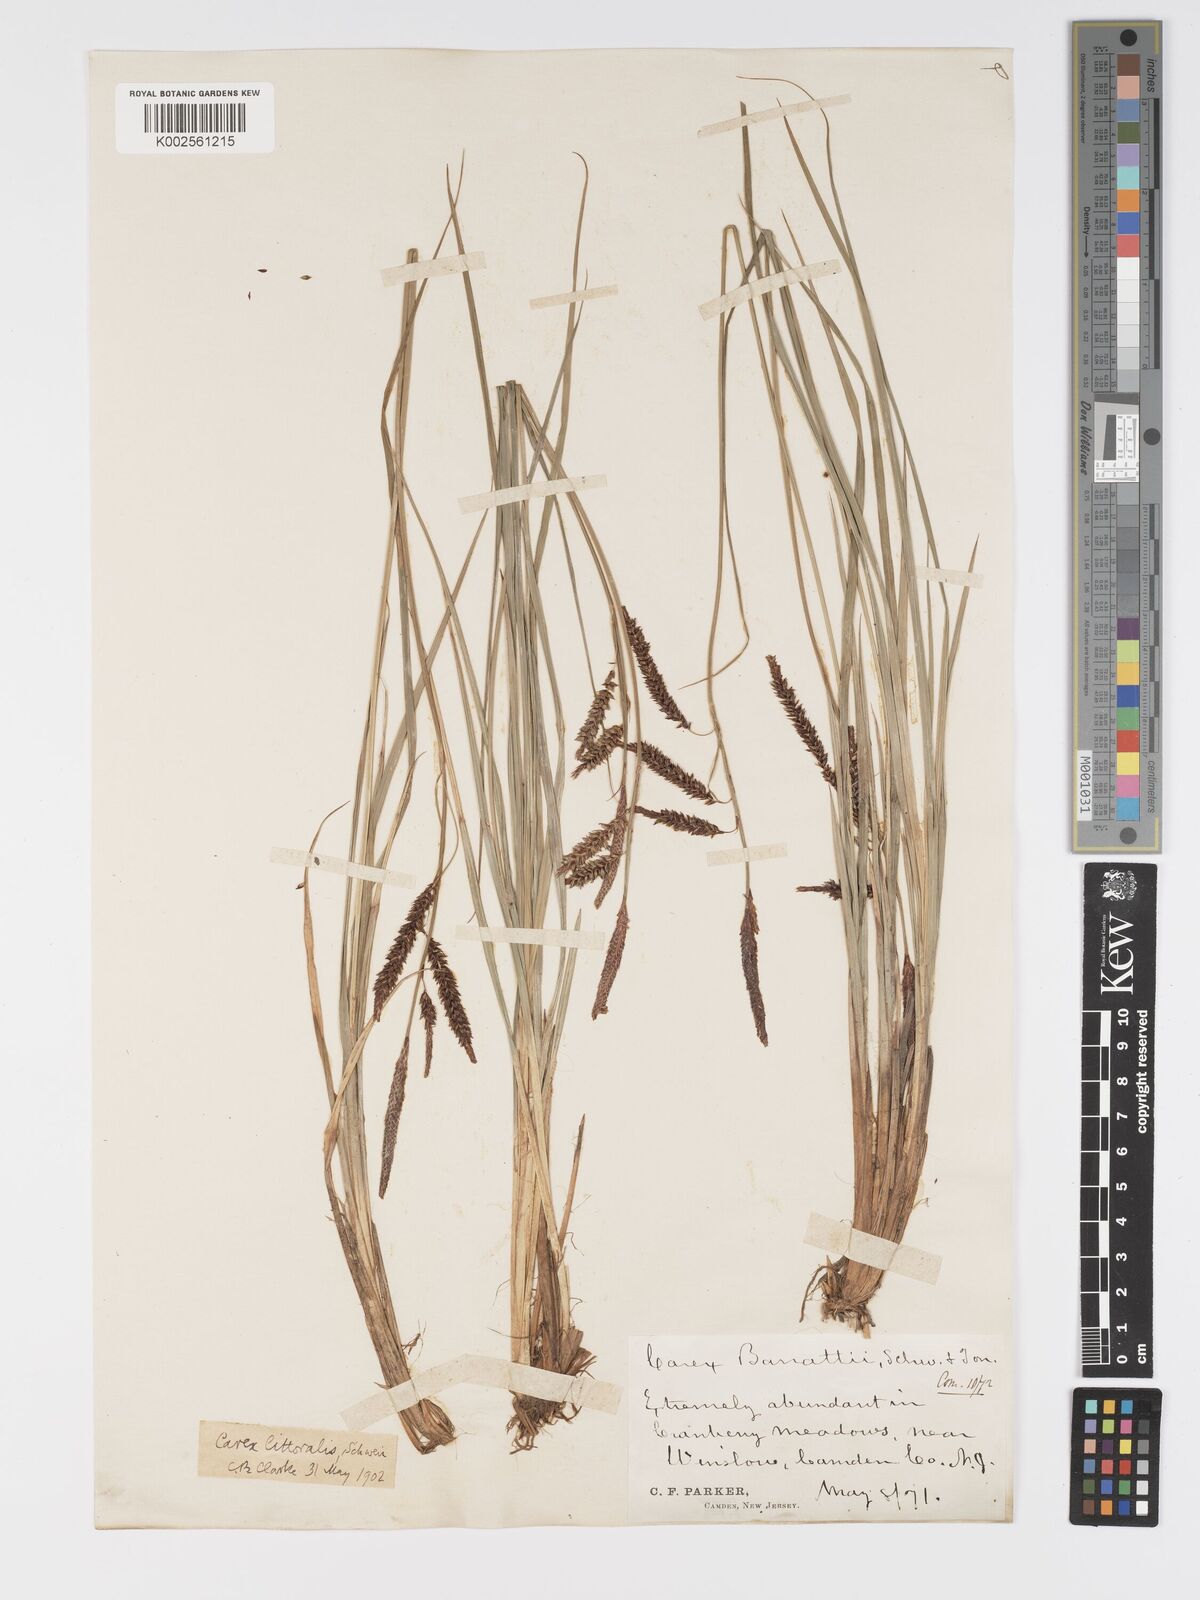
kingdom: Plantae
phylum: Tracheophyta
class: Liliopsida
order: Poales
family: Cyperaceae
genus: Carex
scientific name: Carex barrattii
